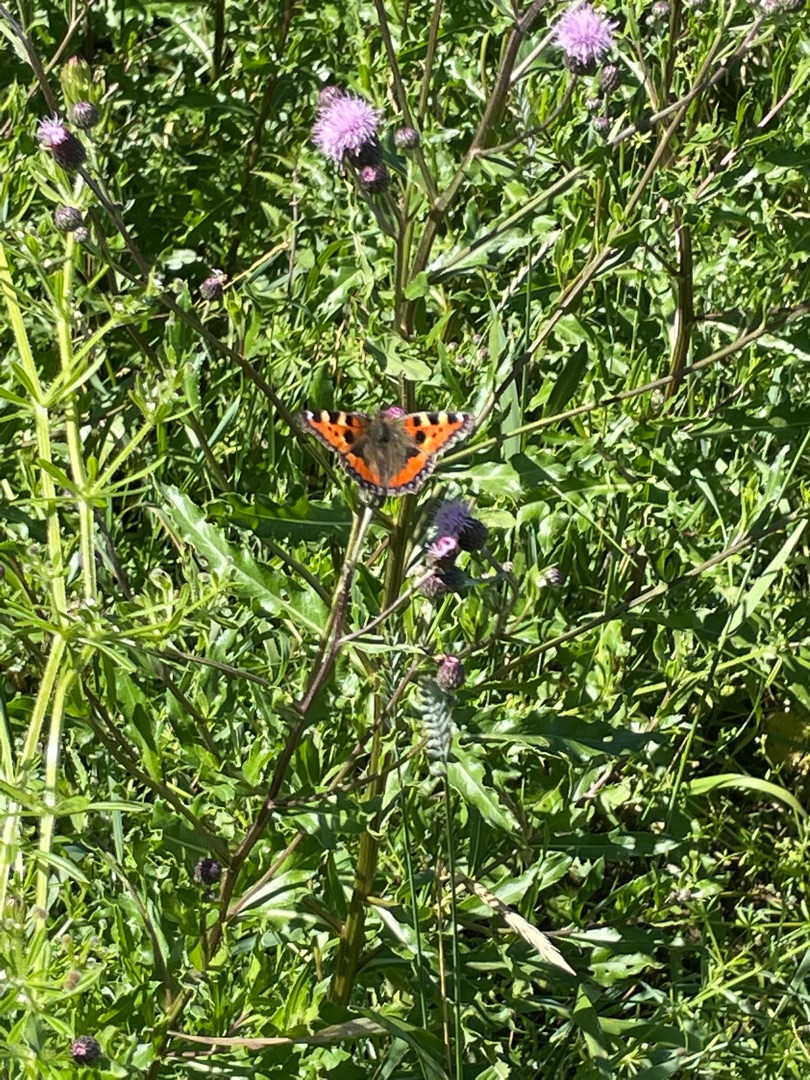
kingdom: Animalia
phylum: Arthropoda
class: Insecta
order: Lepidoptera
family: Nymphalidae
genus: Aglais
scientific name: Aglais urticae
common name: Nældens takvinge
